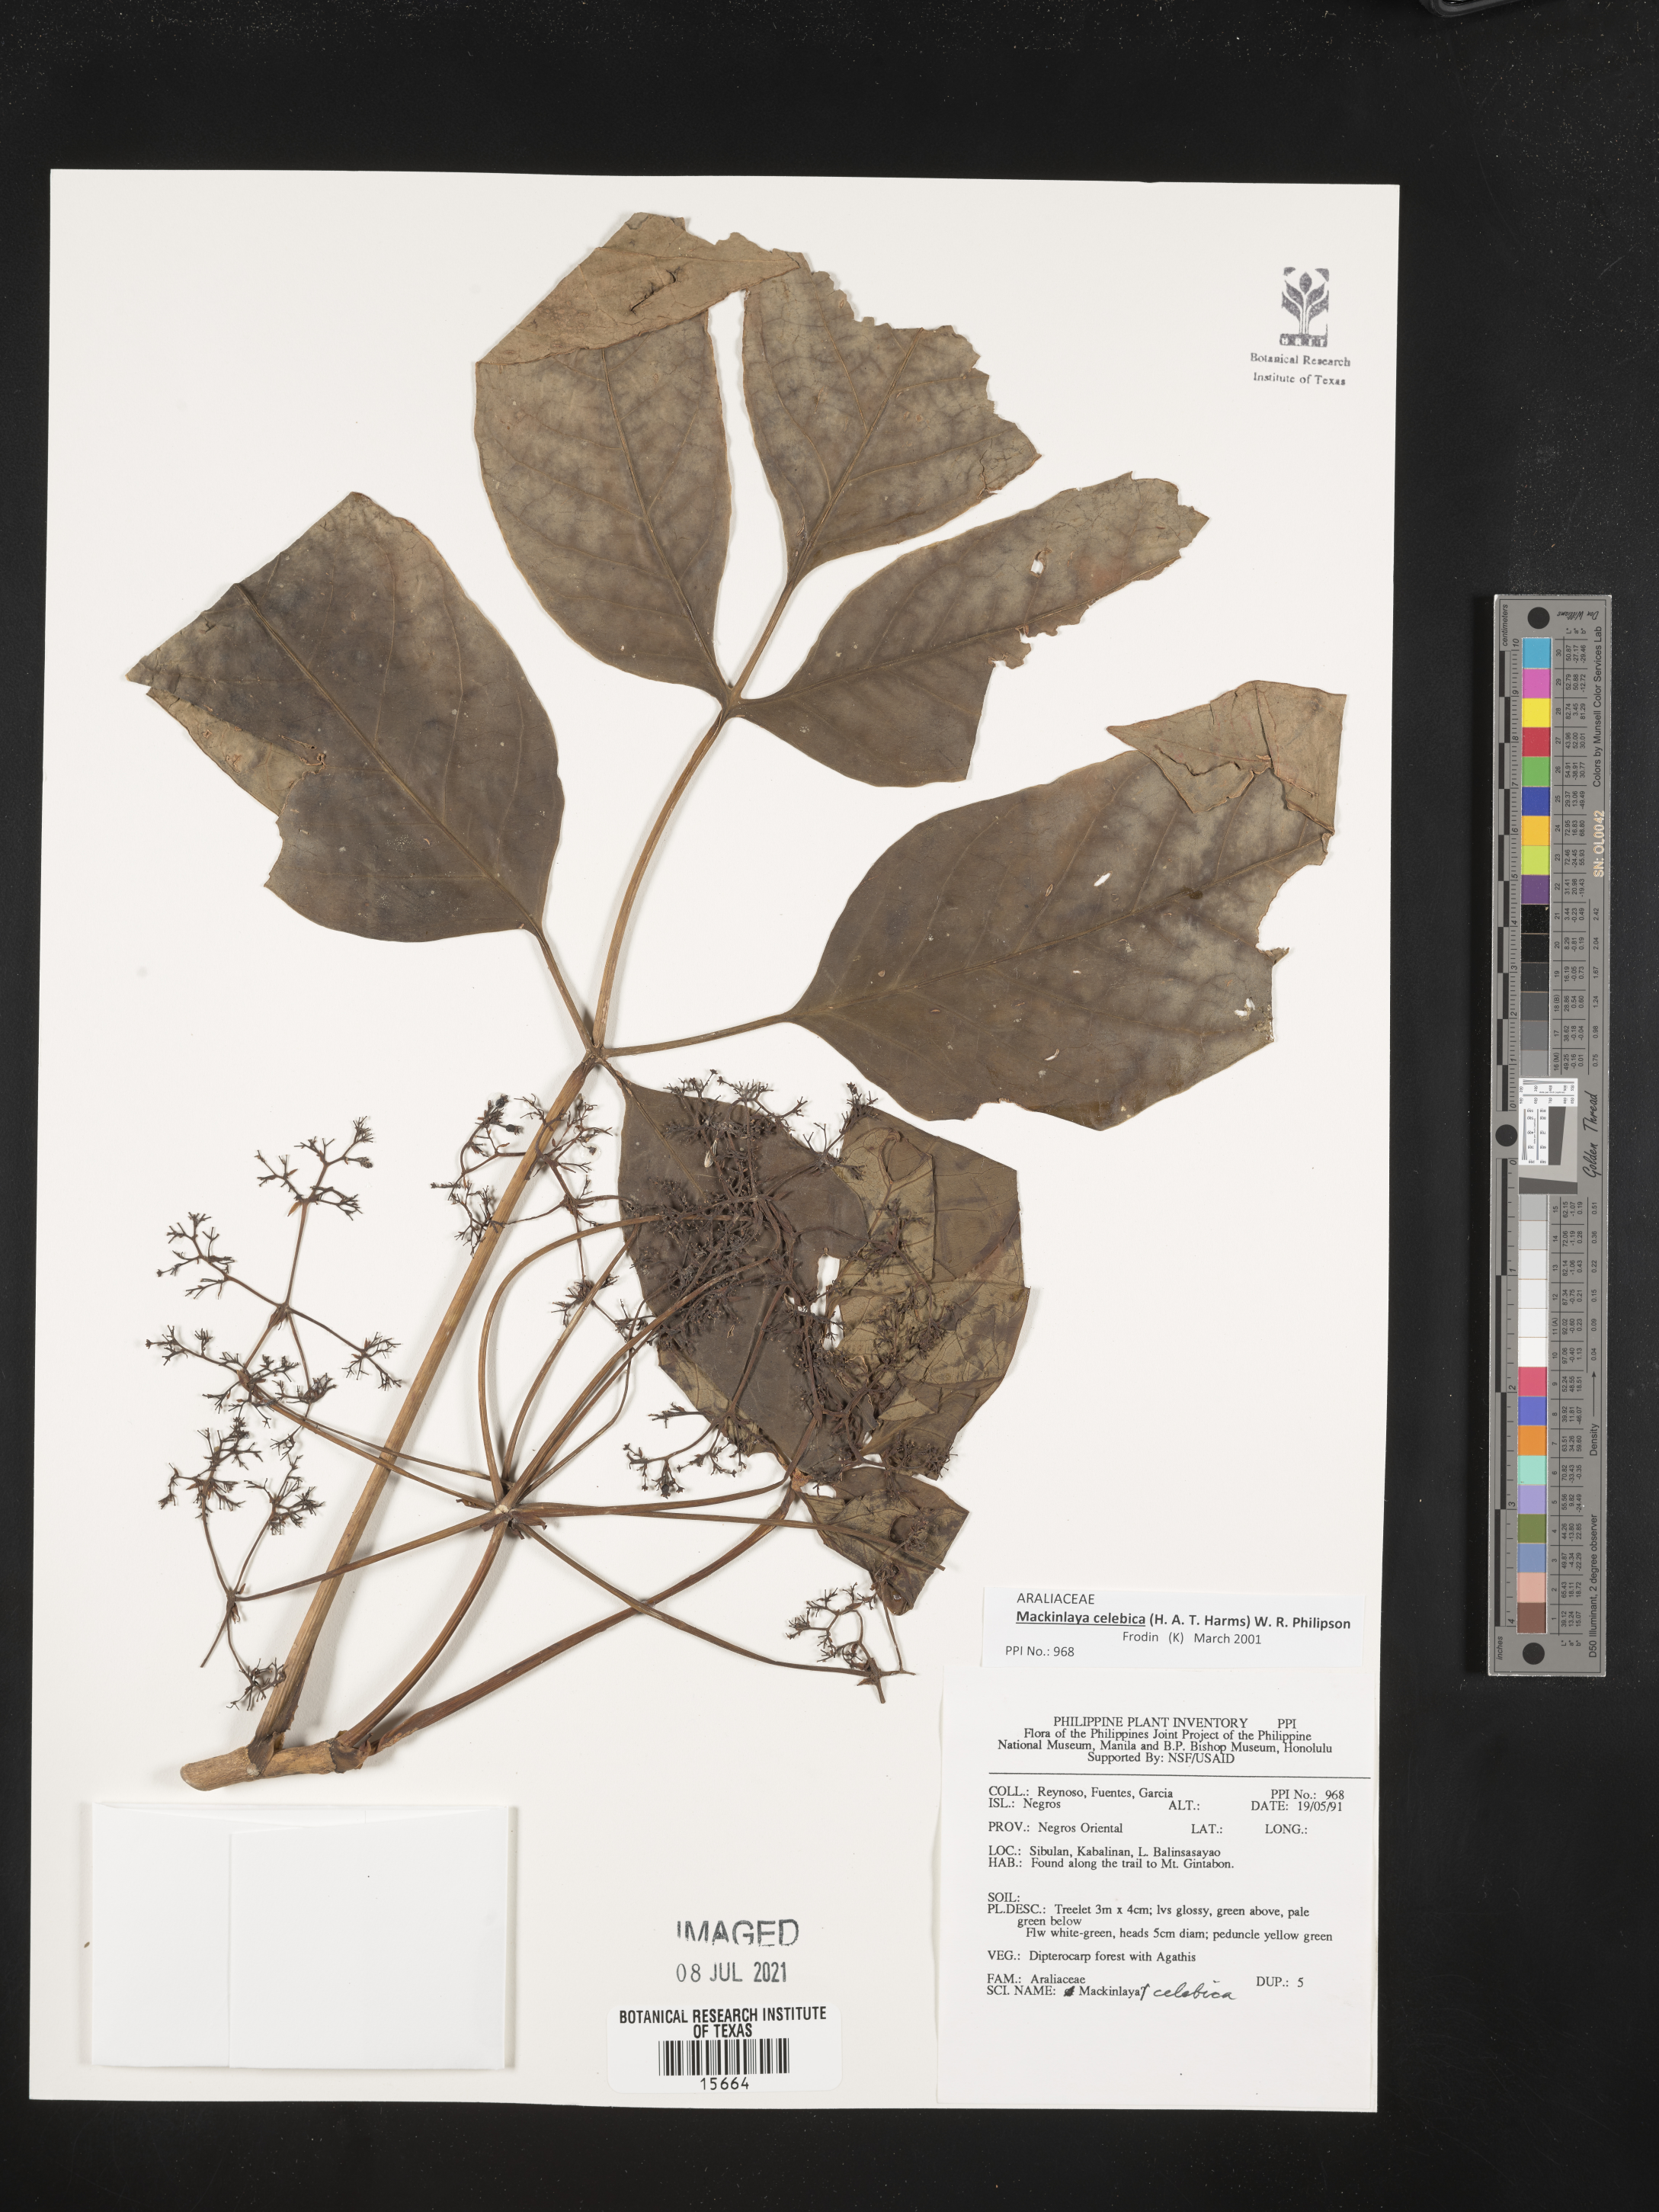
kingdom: Plantae
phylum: Tracheophyta
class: Magnoliopsida
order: Apiales
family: Apiaceae
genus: Mackinlaya
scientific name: Mackinlaya celebica
